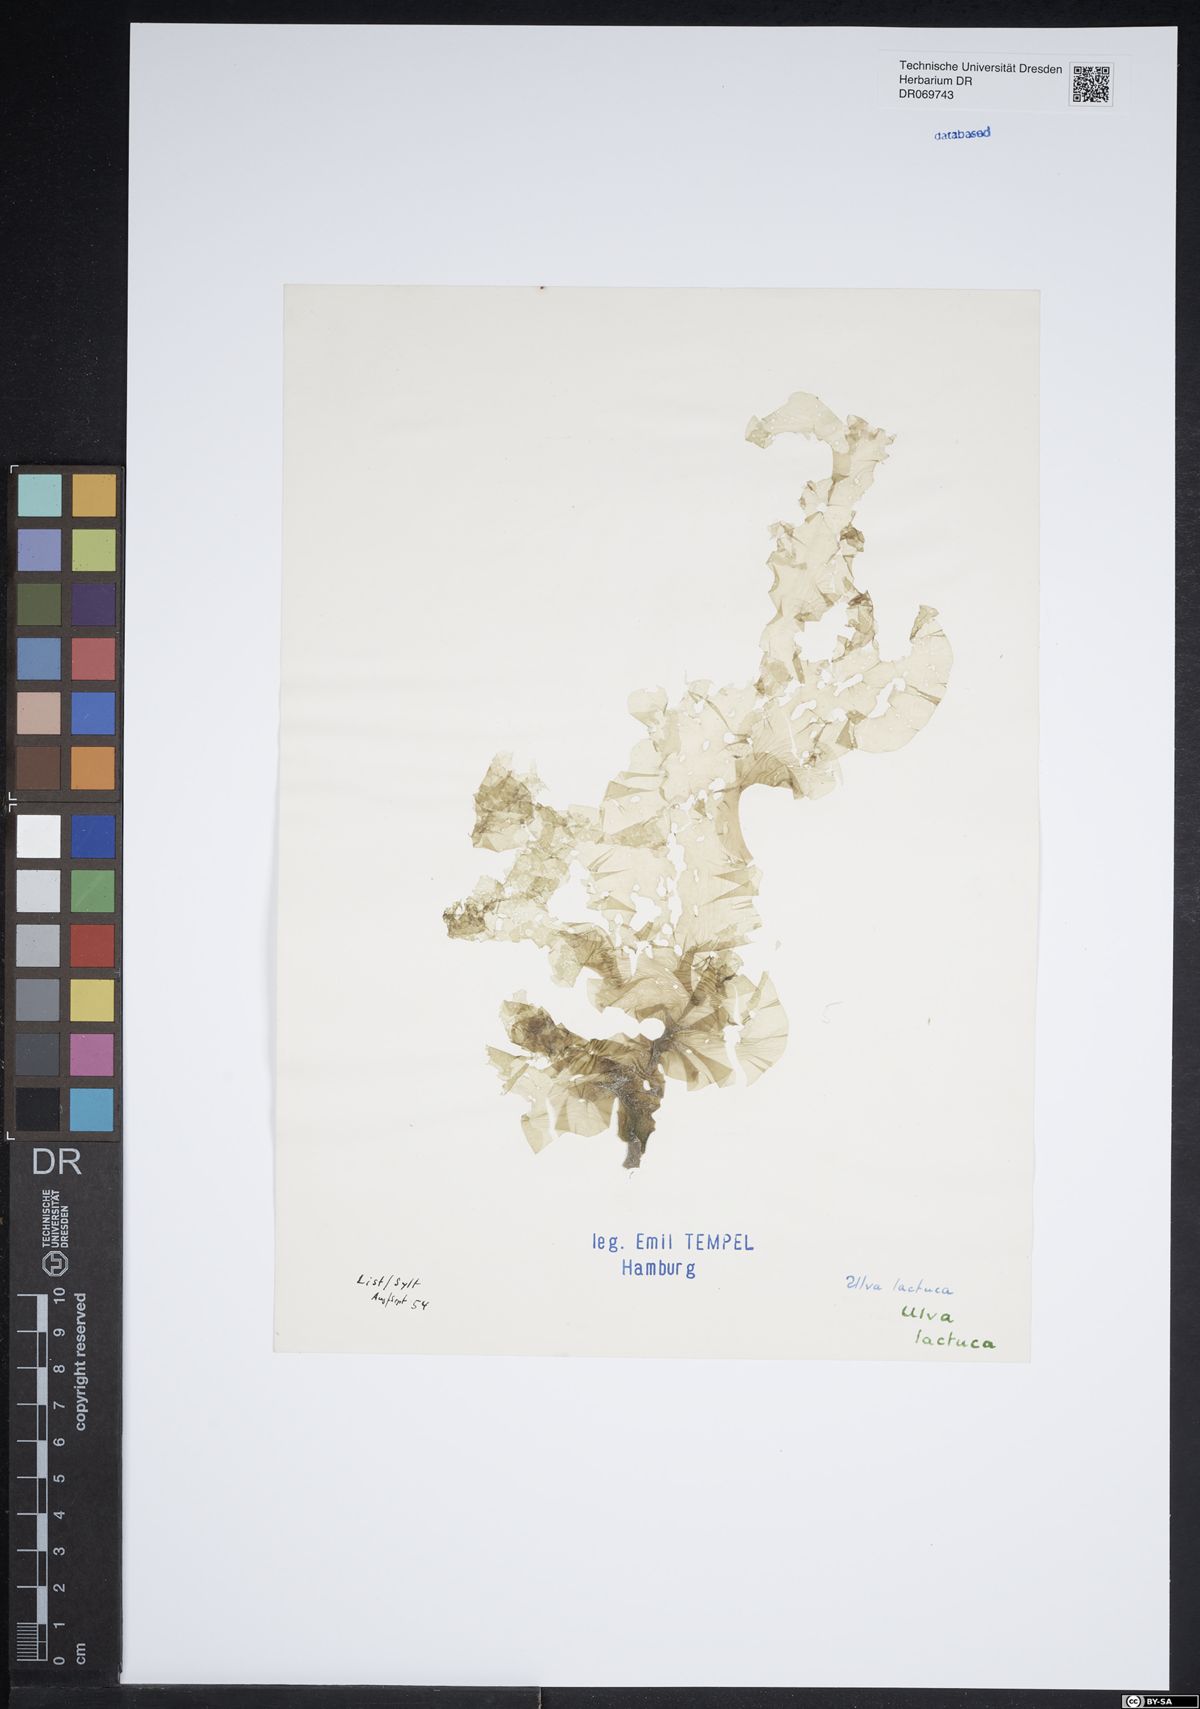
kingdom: Plantae
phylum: Chlorophyta
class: Ulvophyceae
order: Ulvales
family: Ulvaceae
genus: Ulva
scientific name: Ulva lactuca
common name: Sea lettuce
